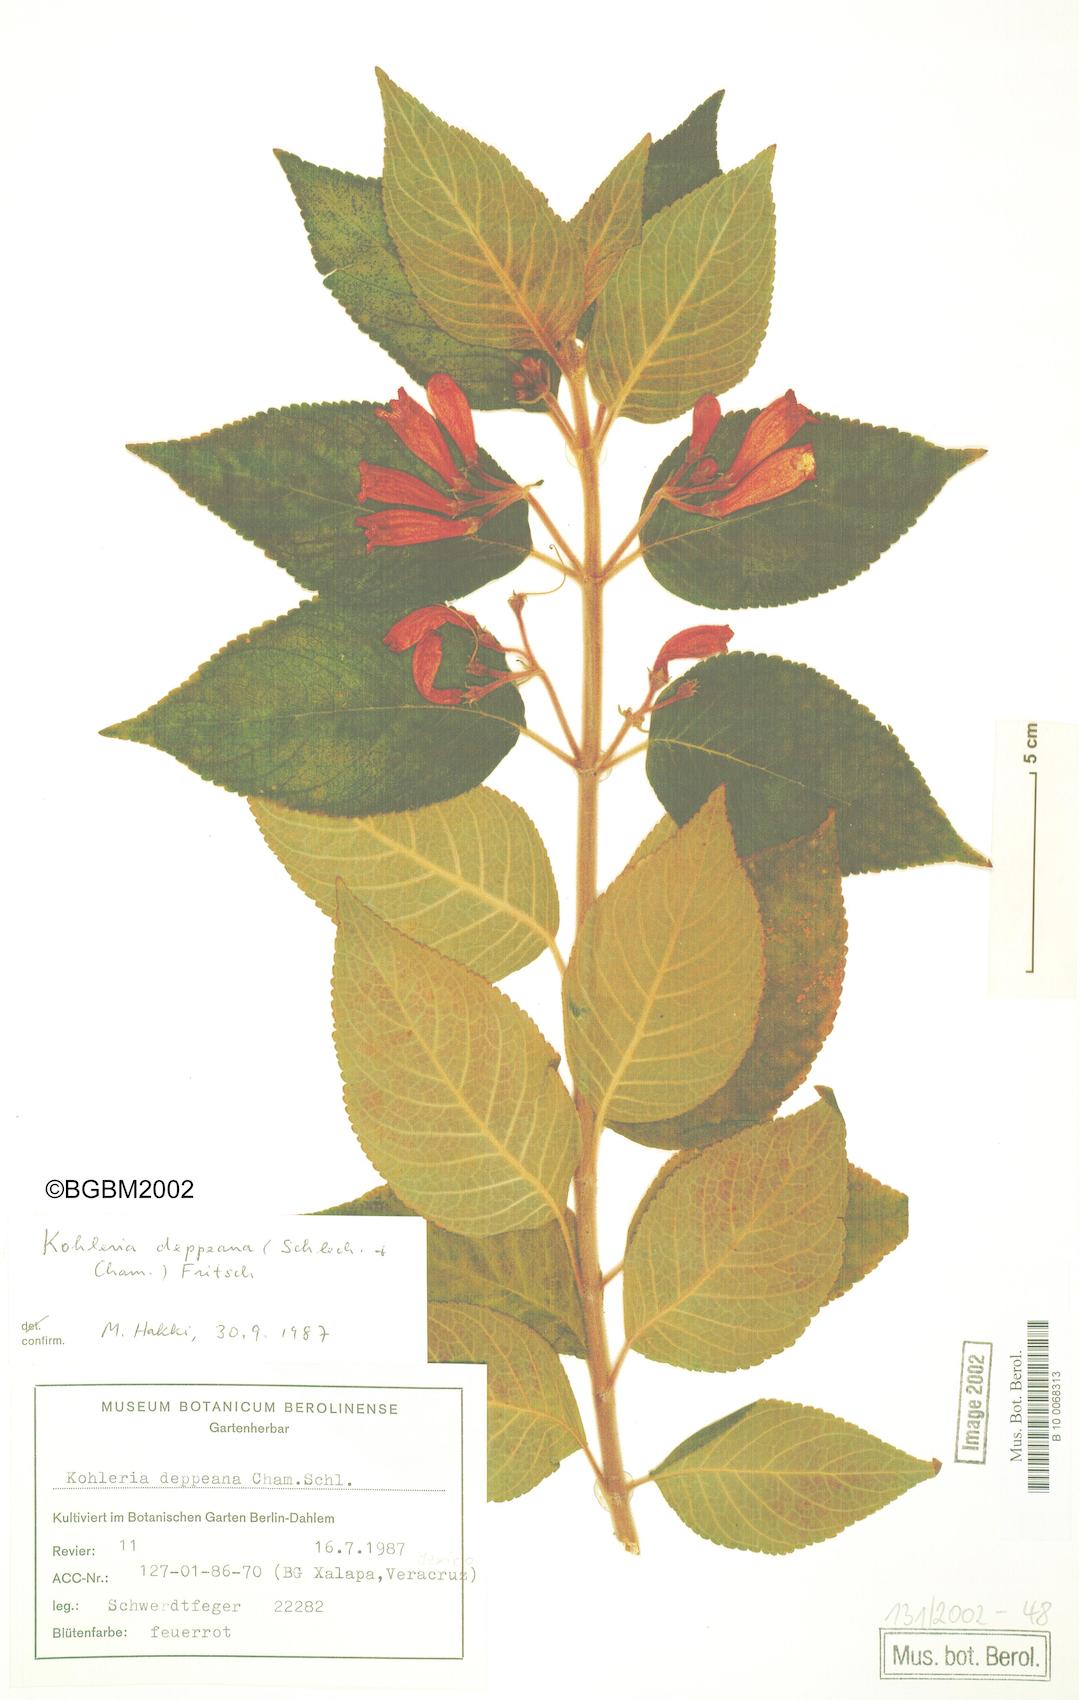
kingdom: Plantae
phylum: Tracheophyta
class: Magnoliopsida
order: Lamiales
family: Gesneriaceae
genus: Moussonia
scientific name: Moussonia deppeana
